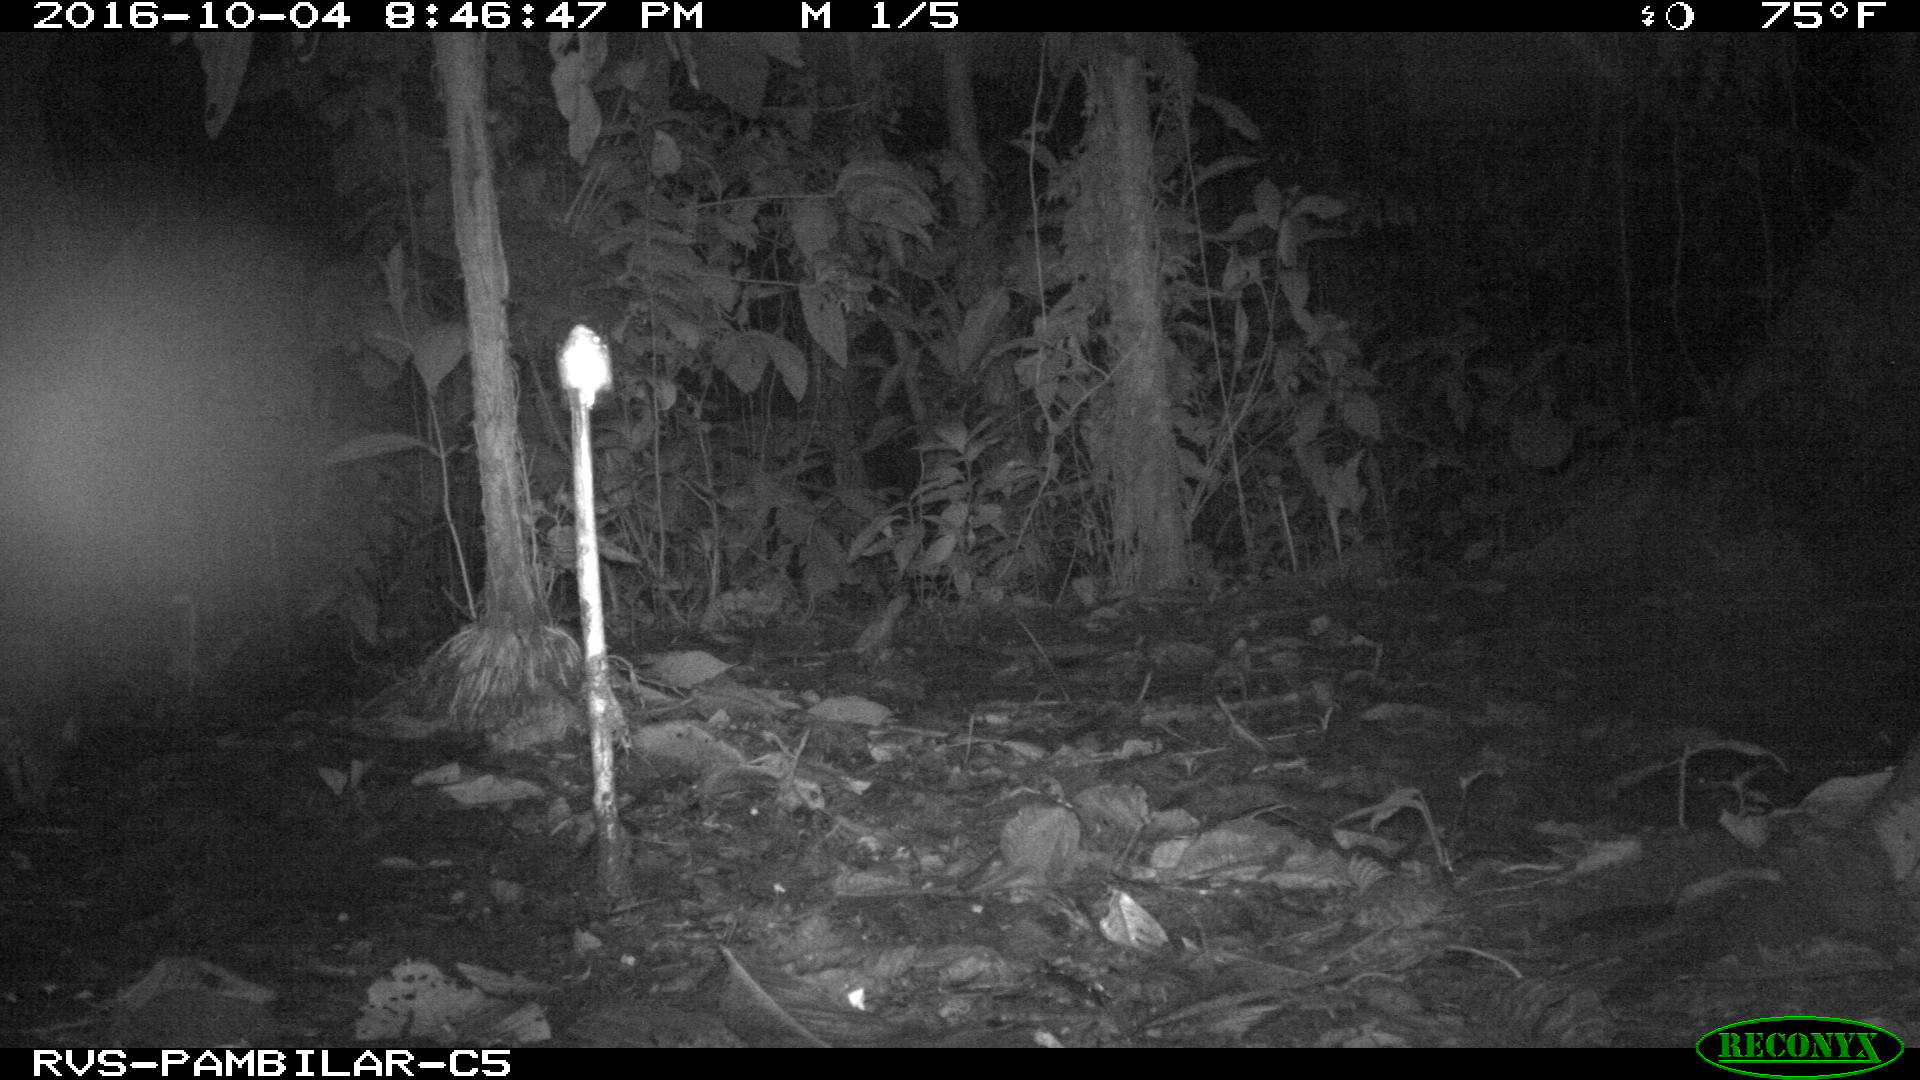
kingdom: Animalia
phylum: Chordata
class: Mammalia
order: Rodentia
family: Cuniculidae
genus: Cuniculus
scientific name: Cuniculus paca
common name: Lowland paca
